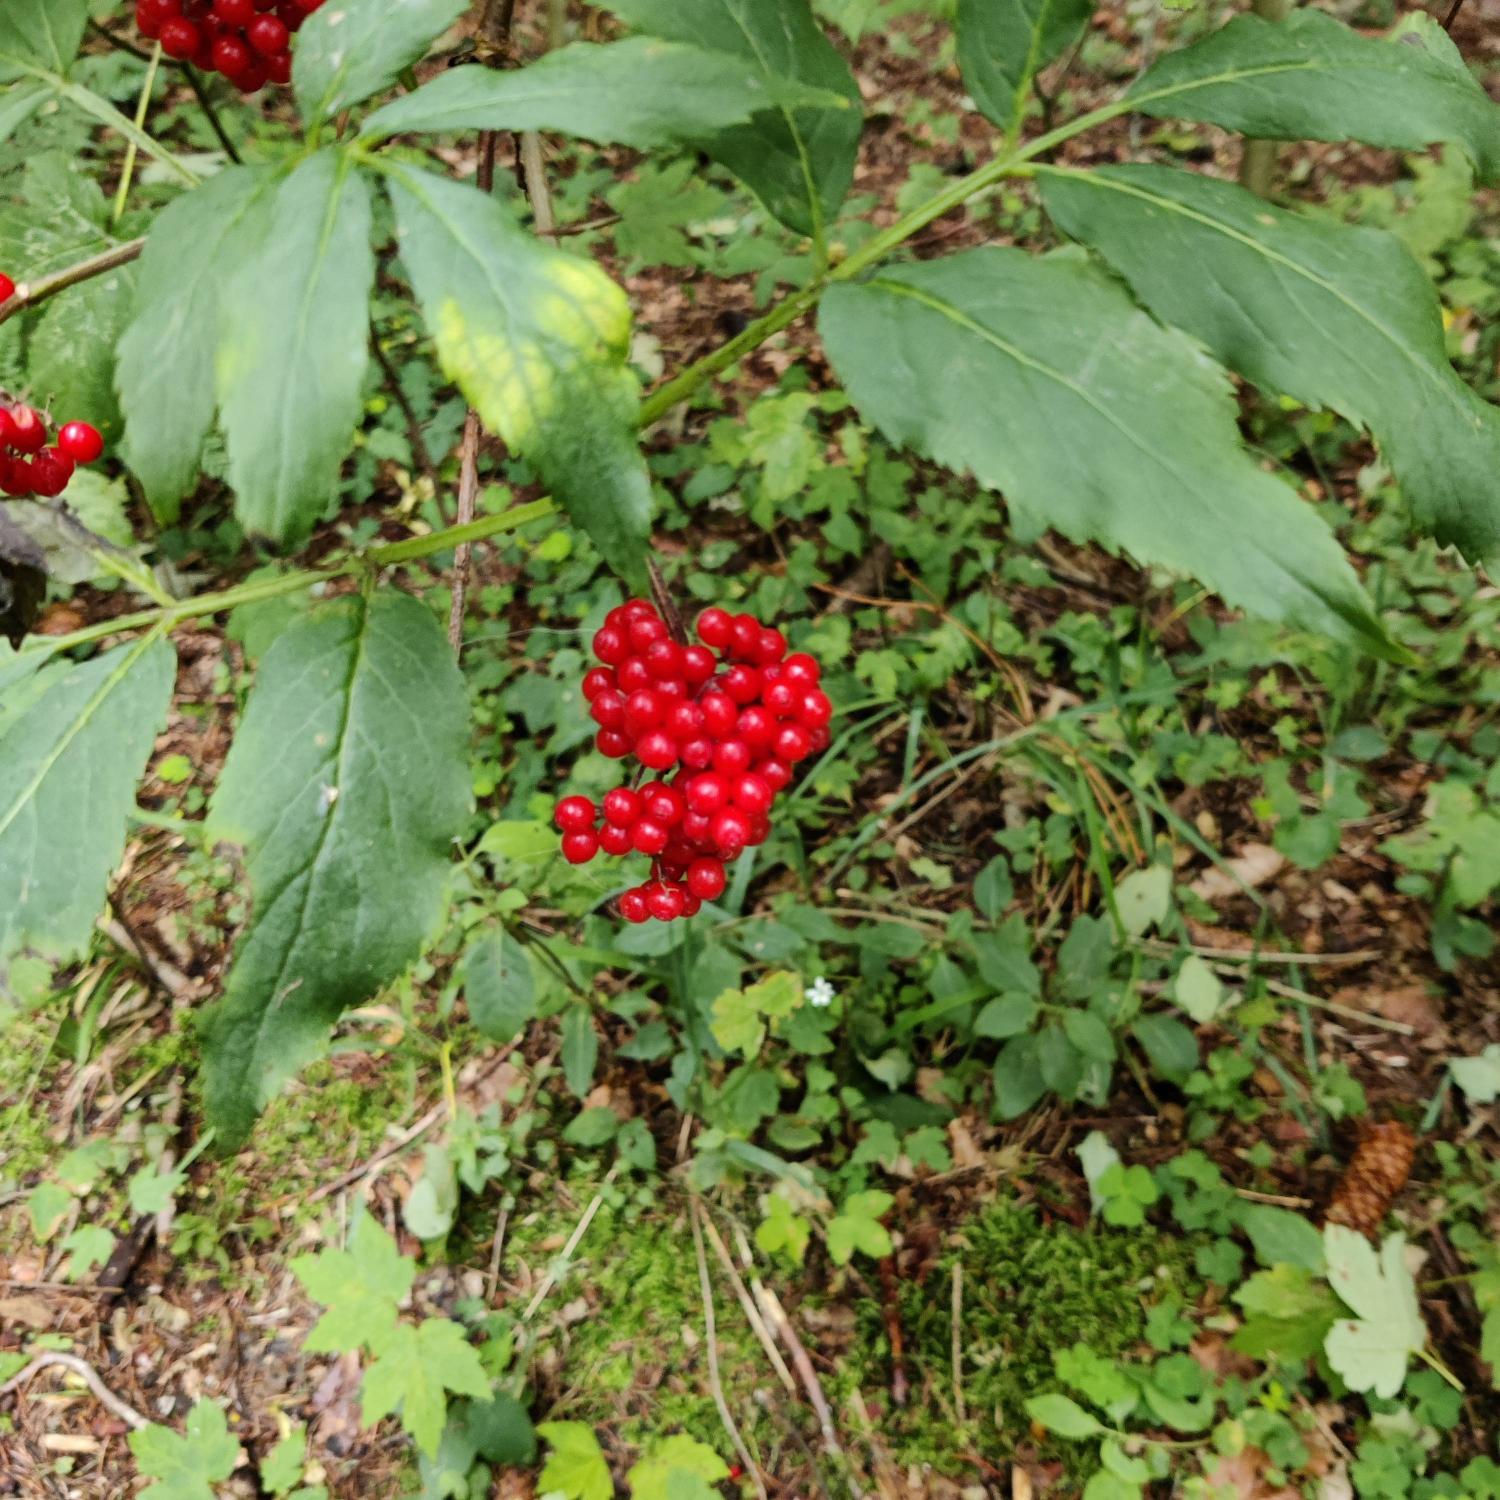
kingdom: Plantae
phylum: Tracheophyta
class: Magnoliopsida
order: Dipsacales
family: Viburnaceae
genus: Sambucus
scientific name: Sambucus racemosa
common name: Drue-hyld
